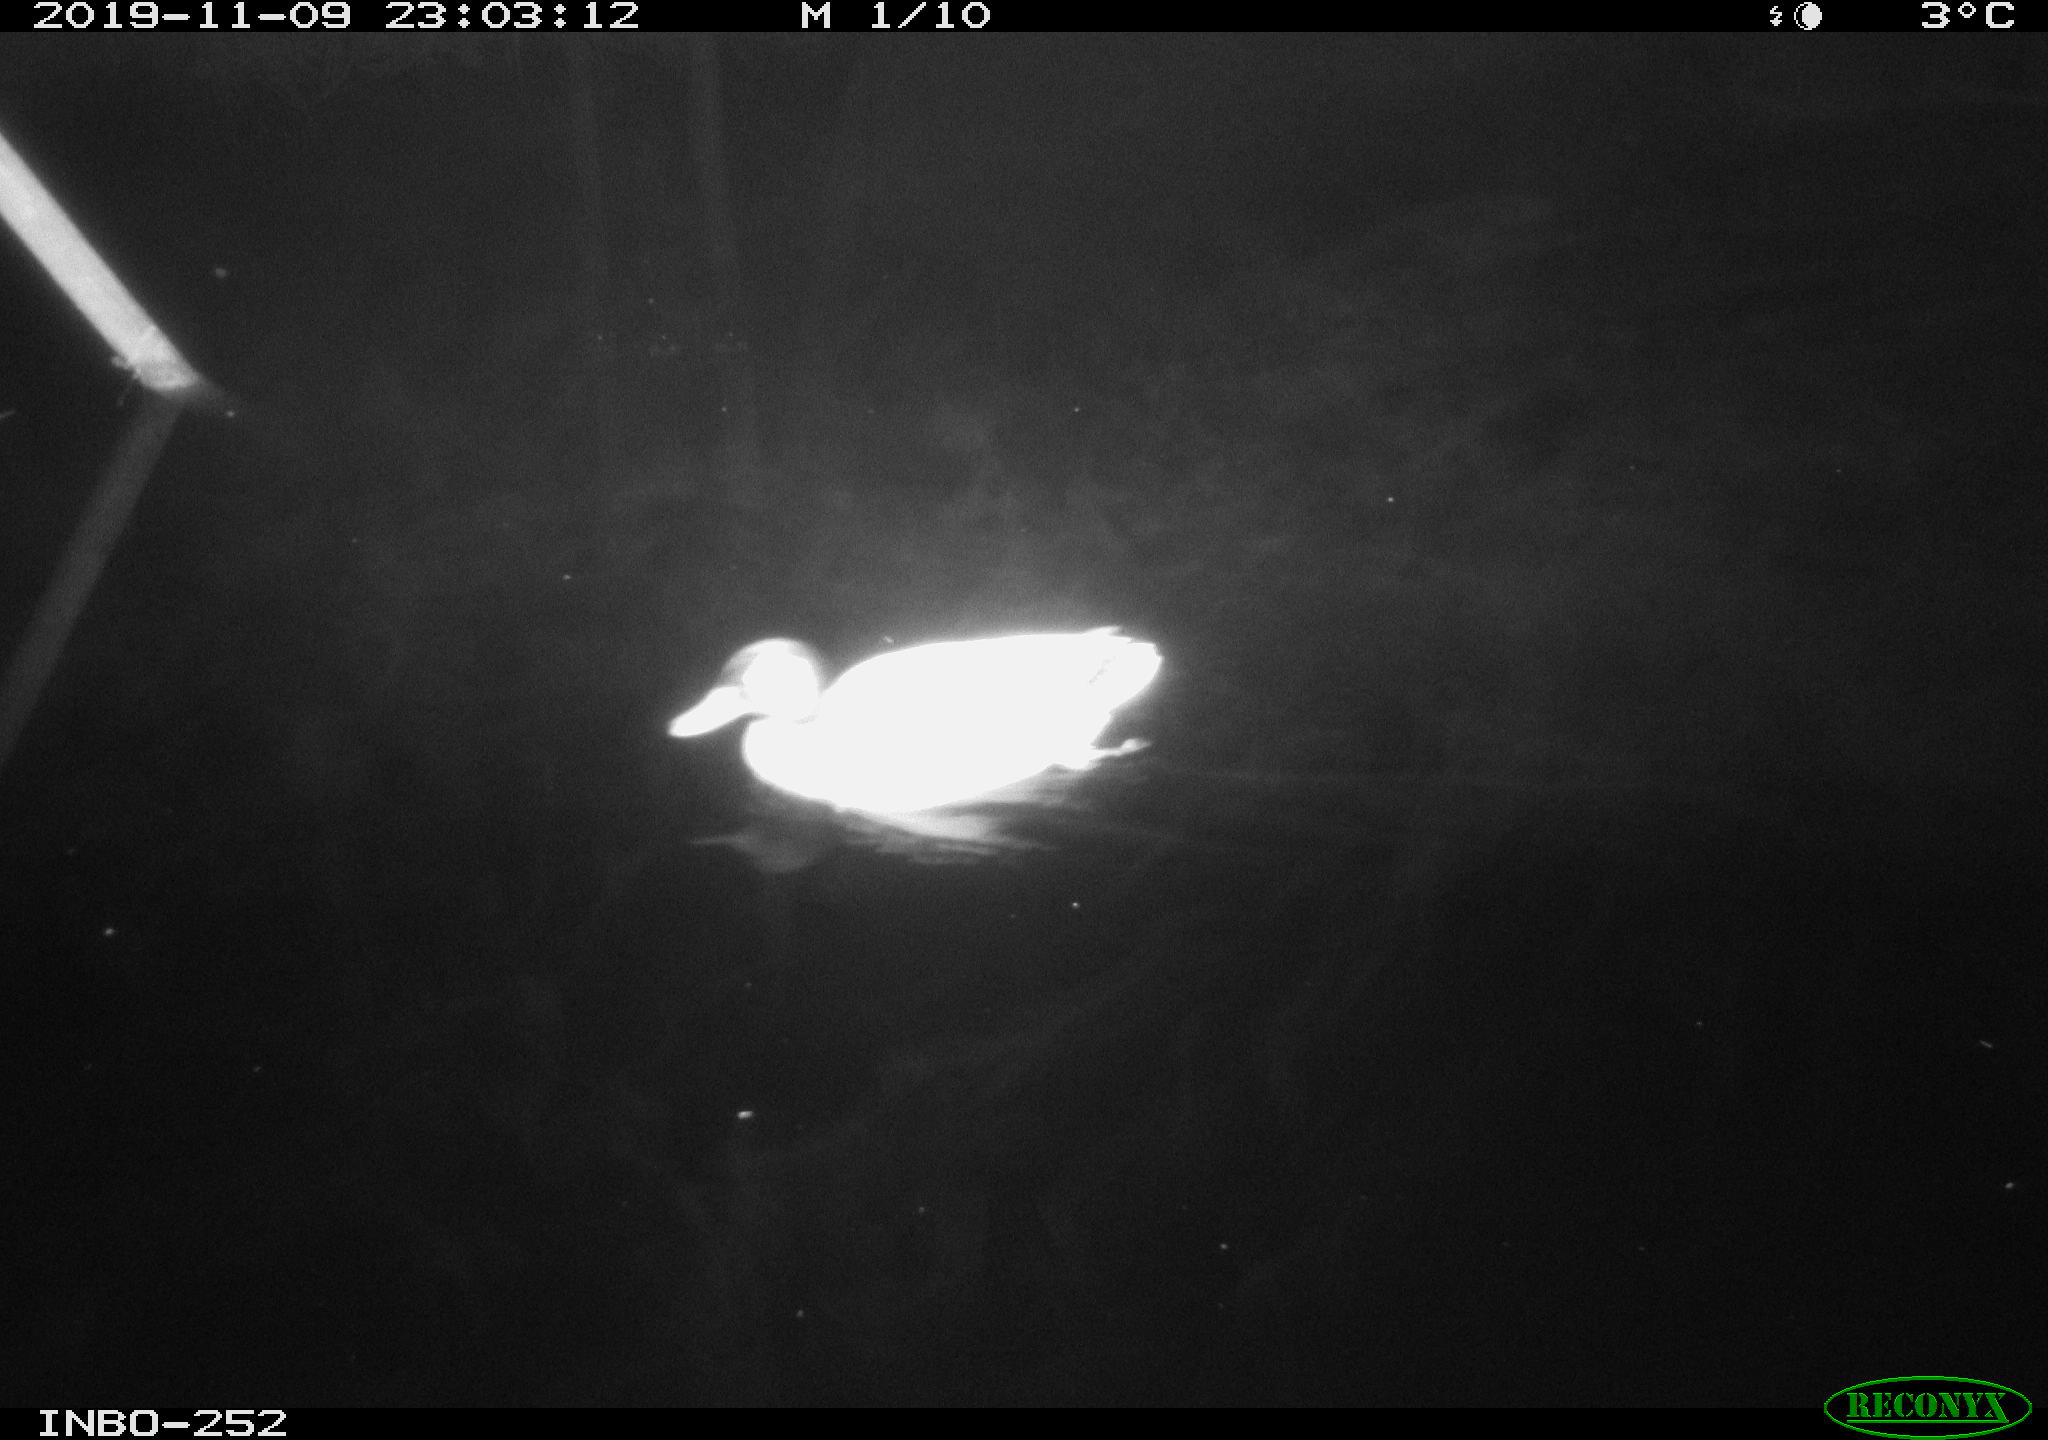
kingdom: Animalia
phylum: Chordata
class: Aves
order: Anseriformes
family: Anatidae
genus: Anas
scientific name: Anas platyrhynchos
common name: Mallard
